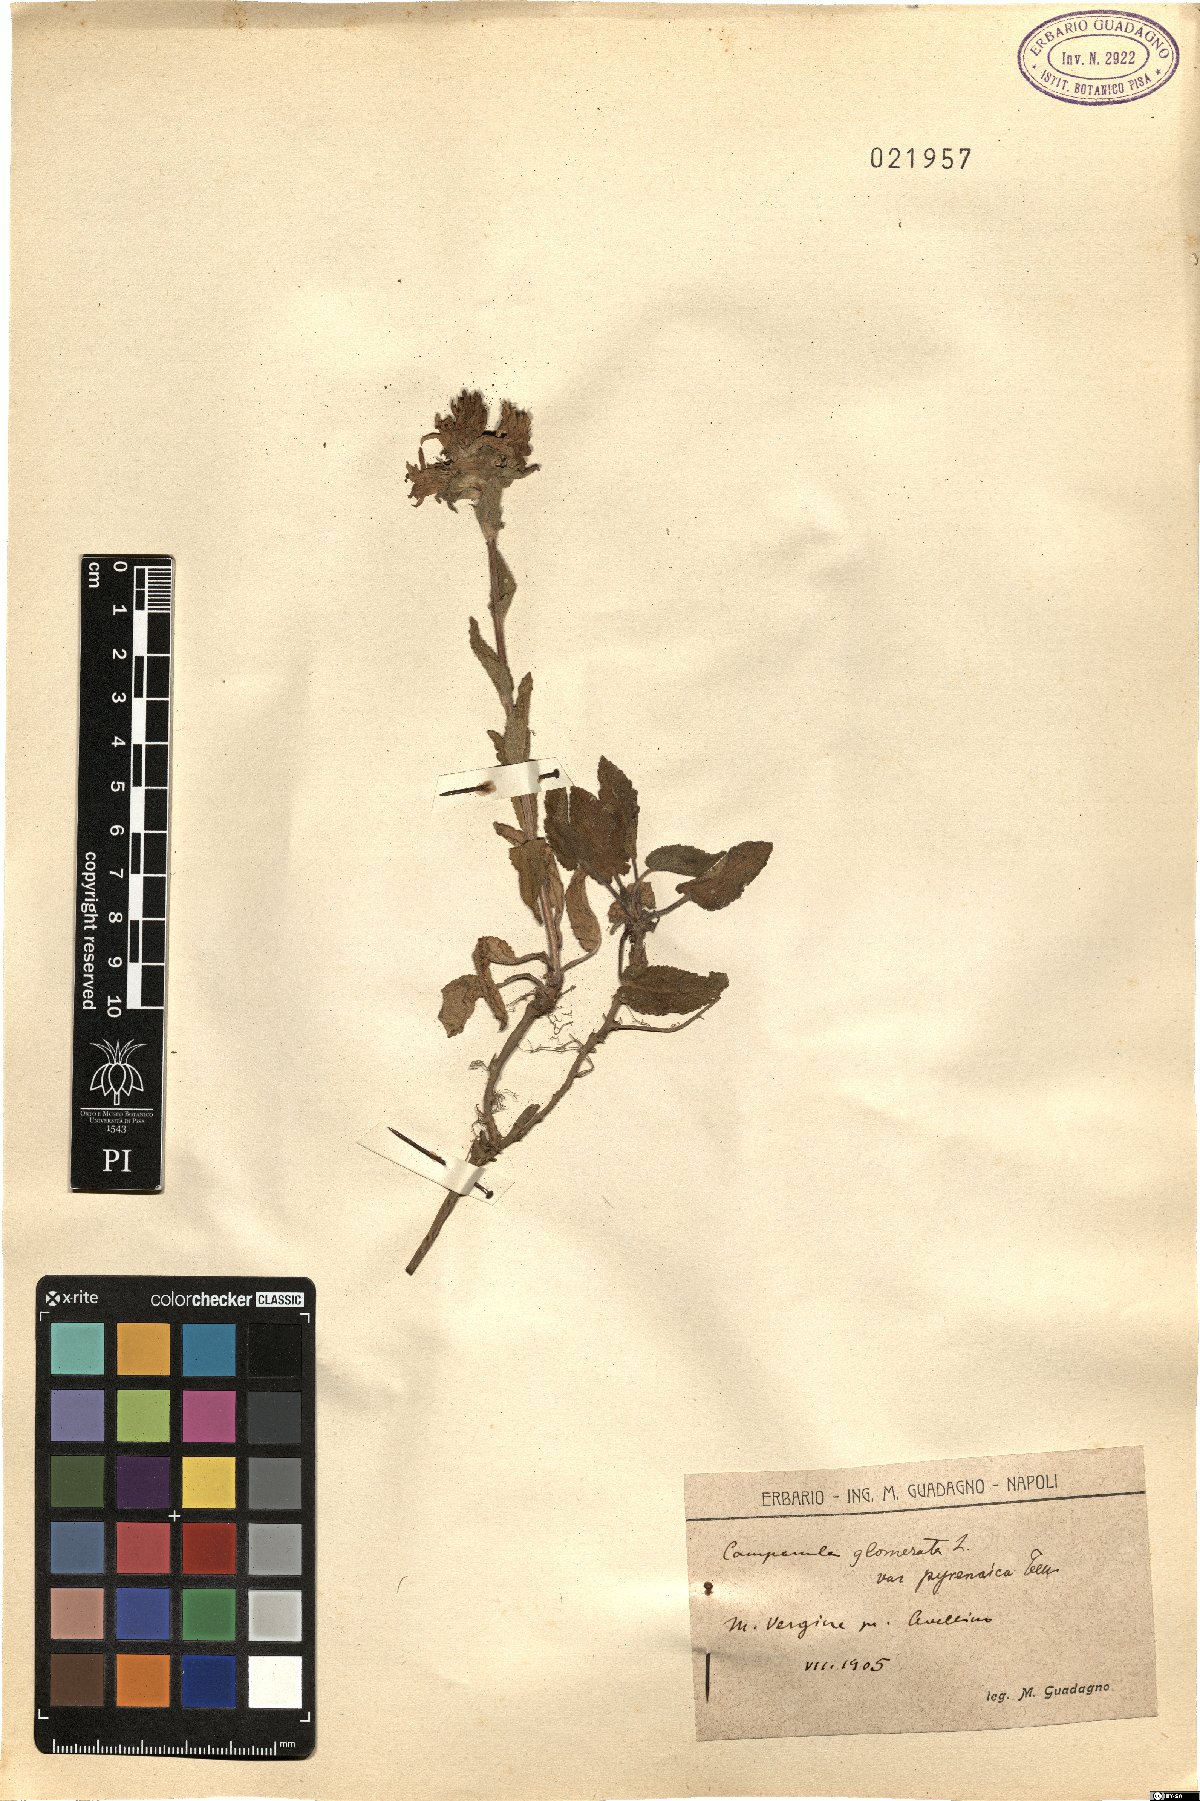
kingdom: Plantae
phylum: Tracheophyta
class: Magnoliopsida
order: Asterales
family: Campanulaceae
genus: Campanula
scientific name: Campanula glomerata
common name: Clustered bellflower
